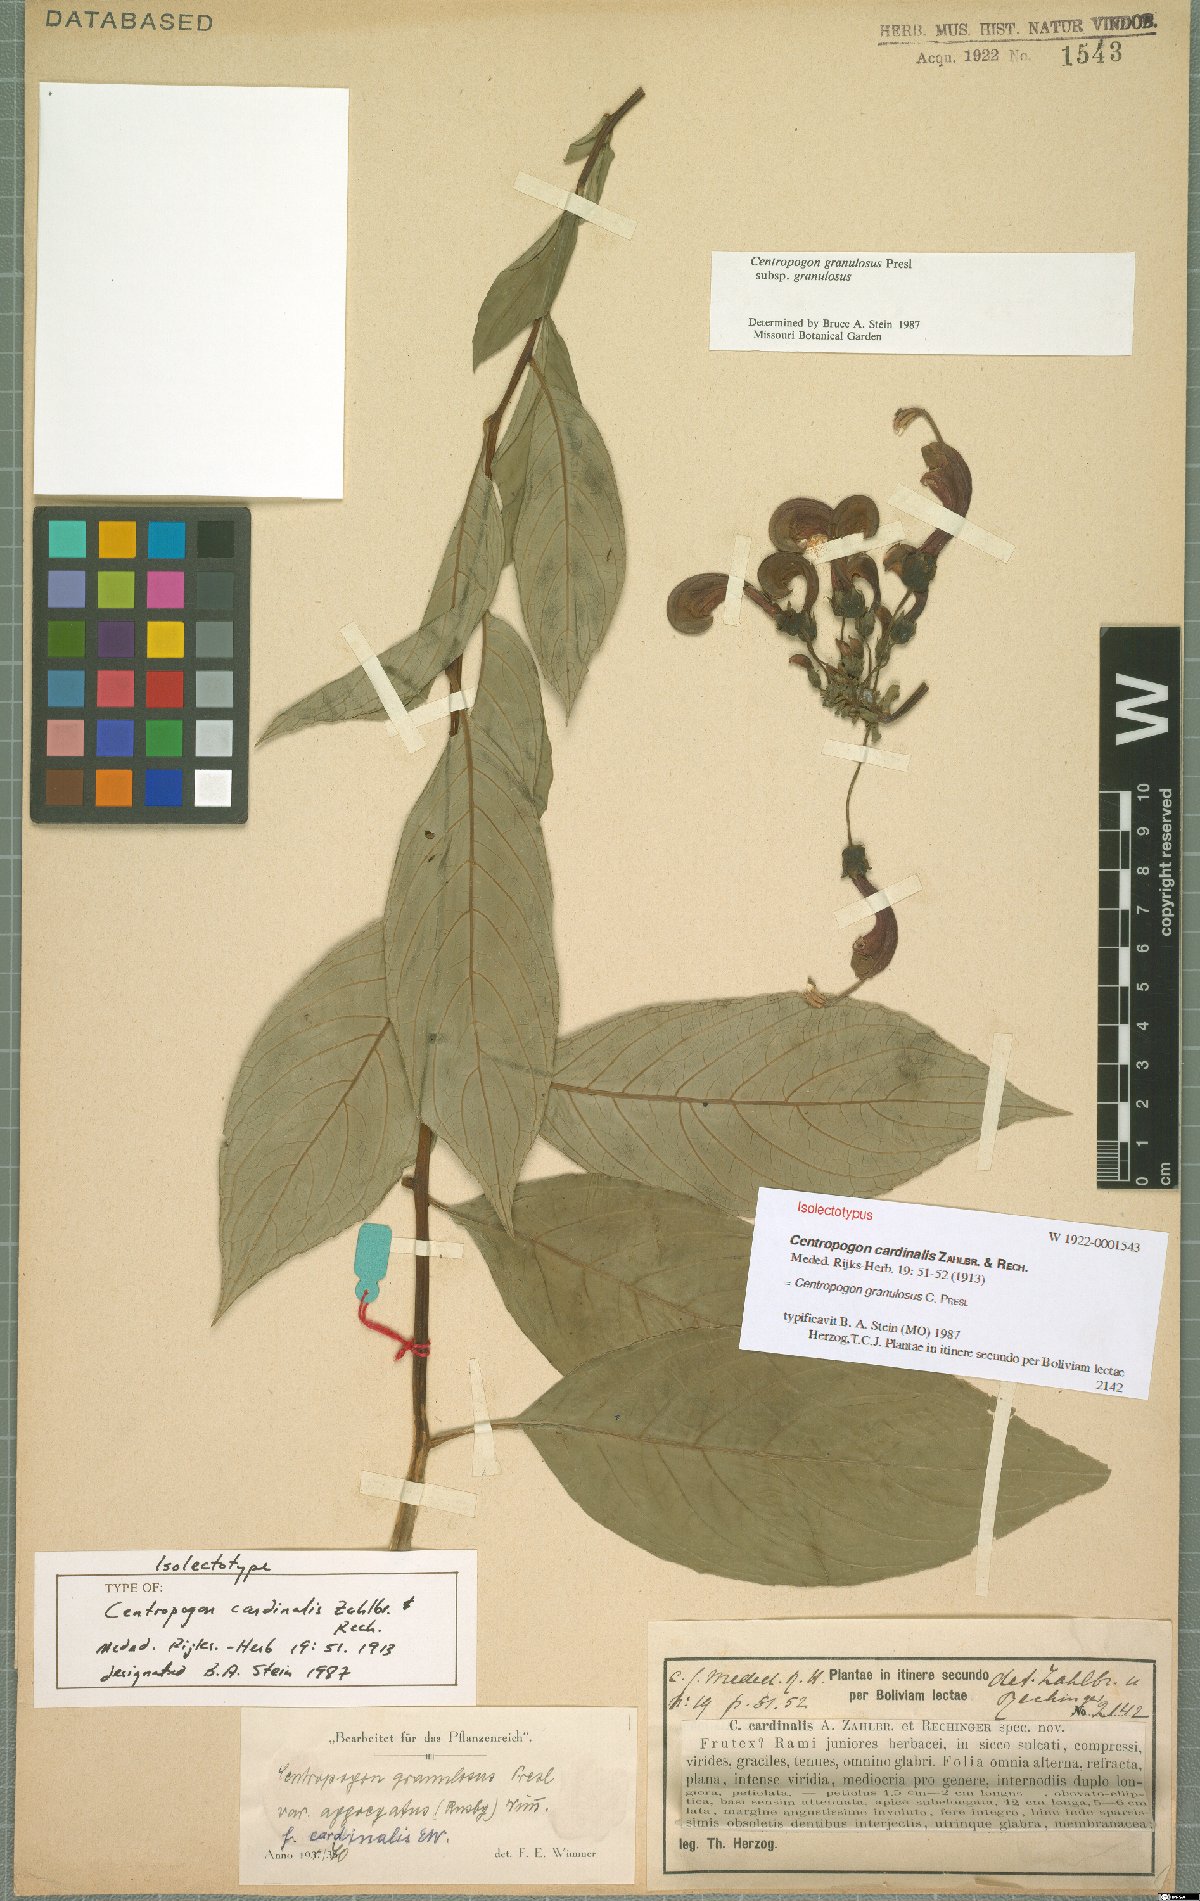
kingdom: Plantae
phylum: Tracheophyta
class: Magnoliopsida
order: Asterales
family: Campanulaceae
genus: Centropogon
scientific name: Centropogon granulosus
